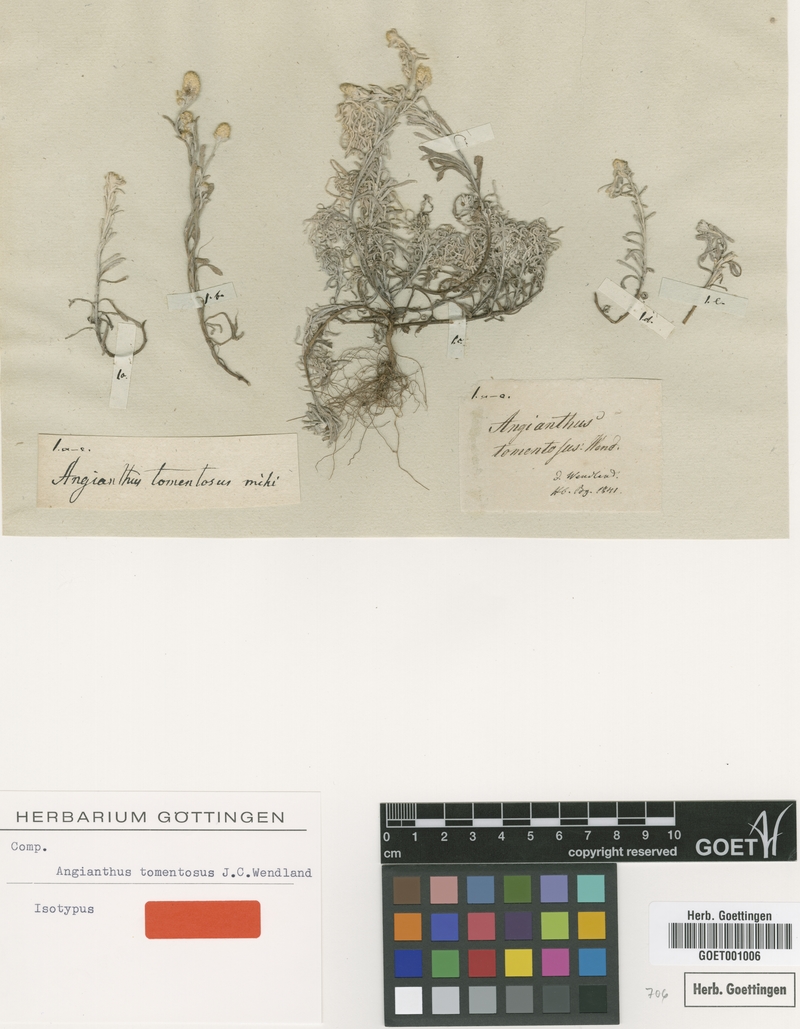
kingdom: Plantae
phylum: Tracheophyta
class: Magnoliopsida
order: Asterales
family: Asteraceae
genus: Siloxerus
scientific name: Siloxerus tomentosus
